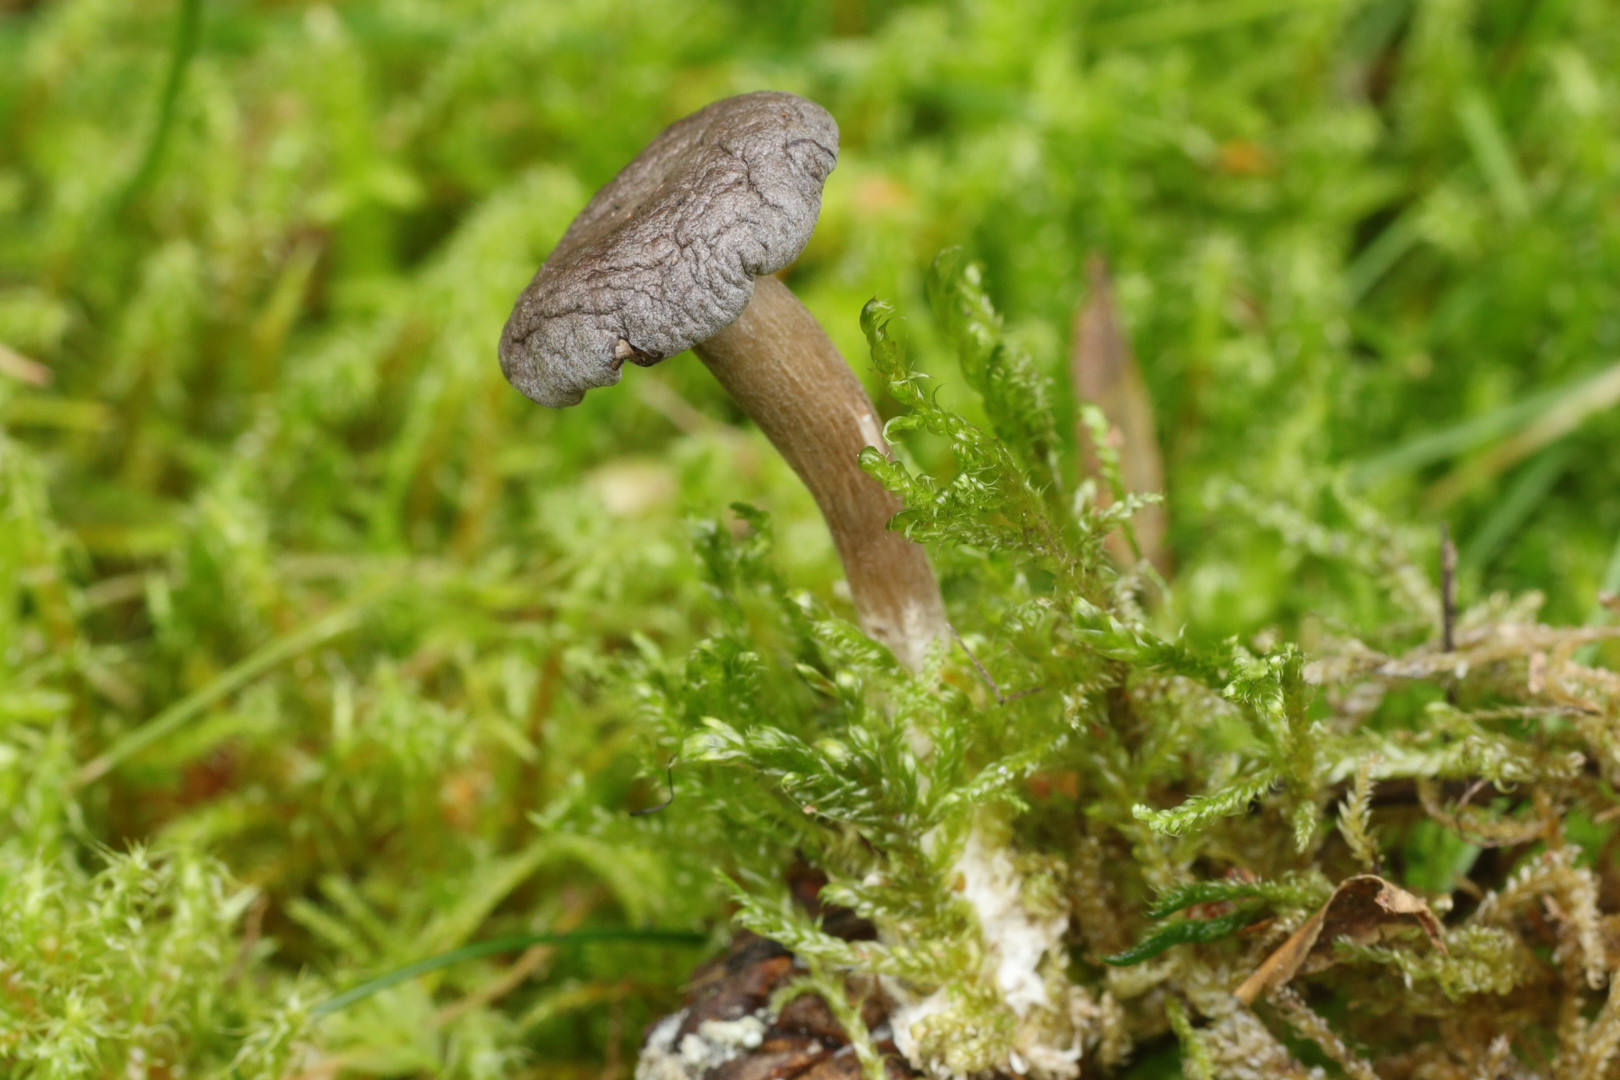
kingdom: Fungi
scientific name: Fungi
